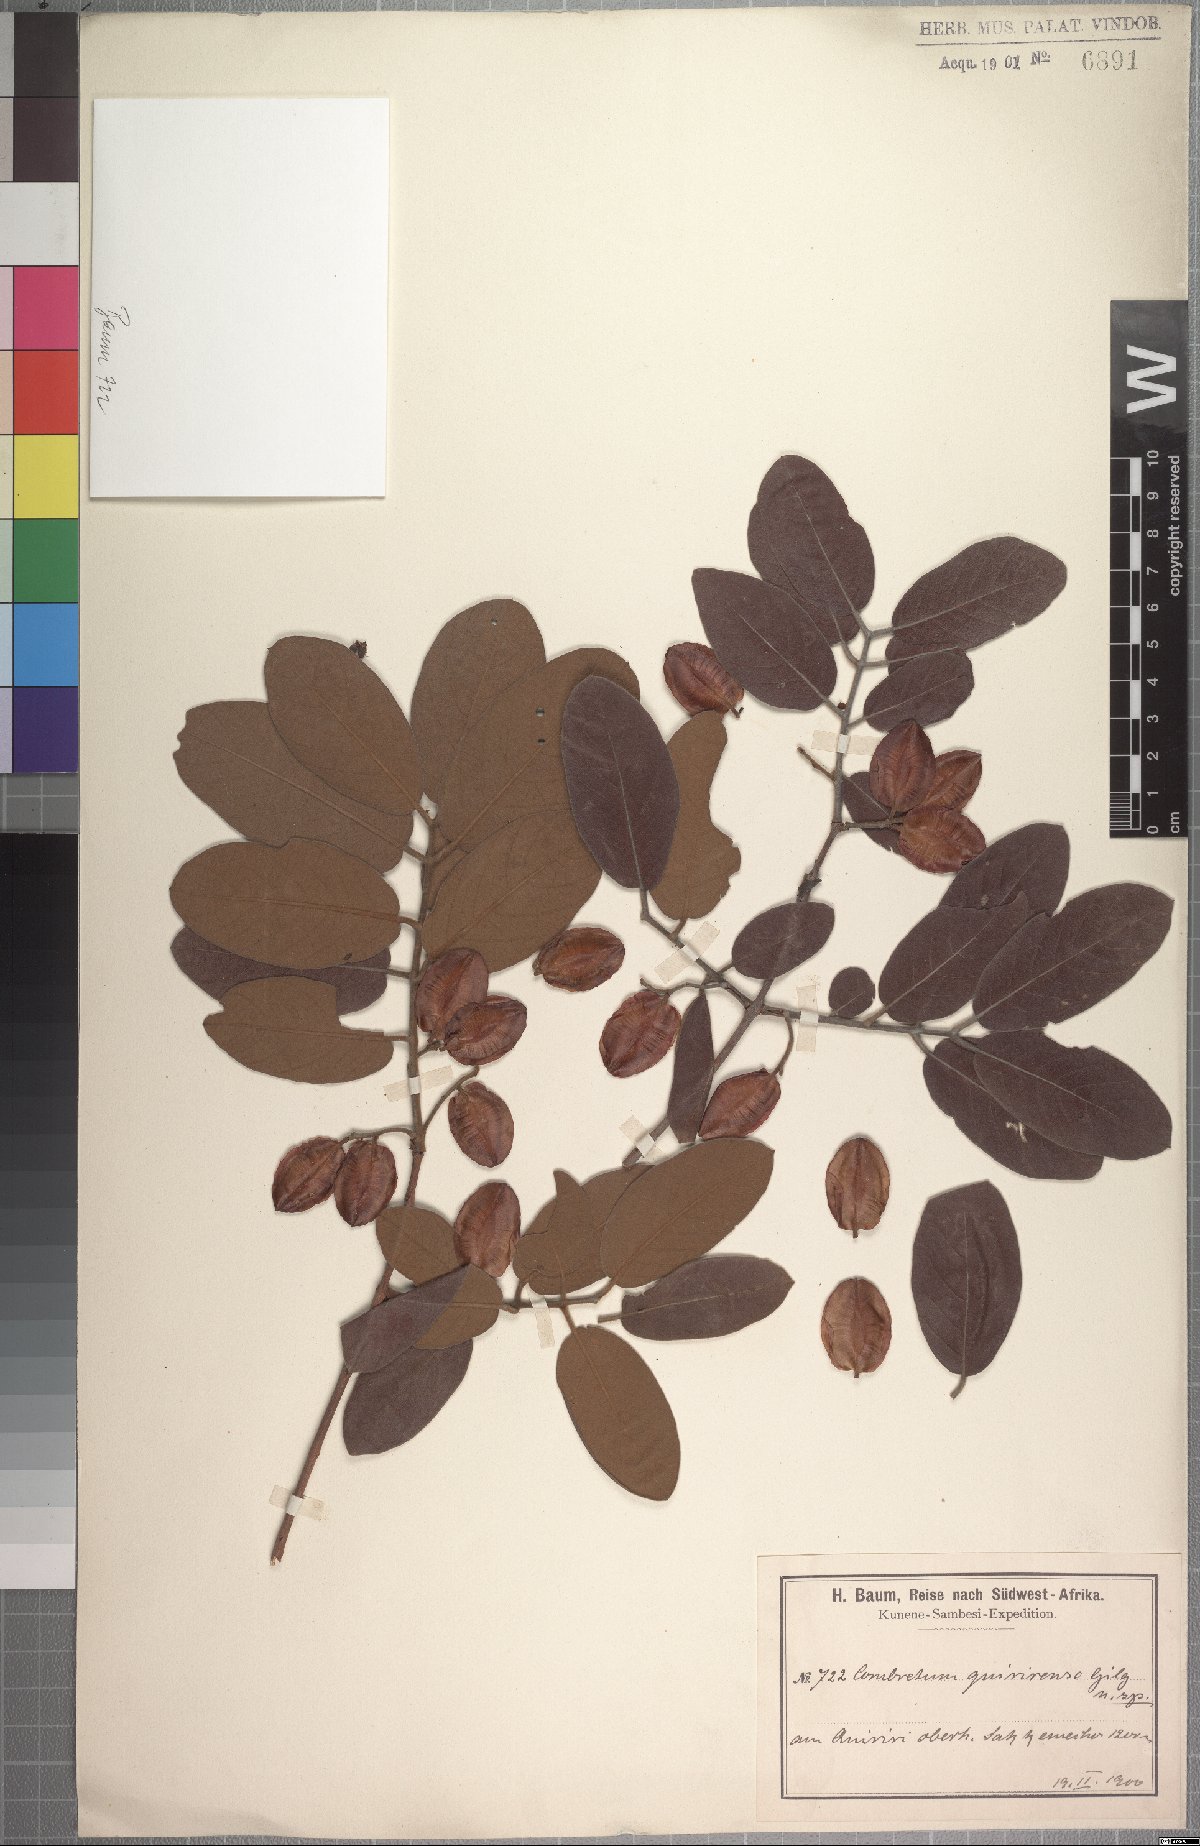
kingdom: Plantae
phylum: Tracheophyta
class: Magnoliopsida
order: Myrtales
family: Combretaceae
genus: Combretum
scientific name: Combretum psidioides
